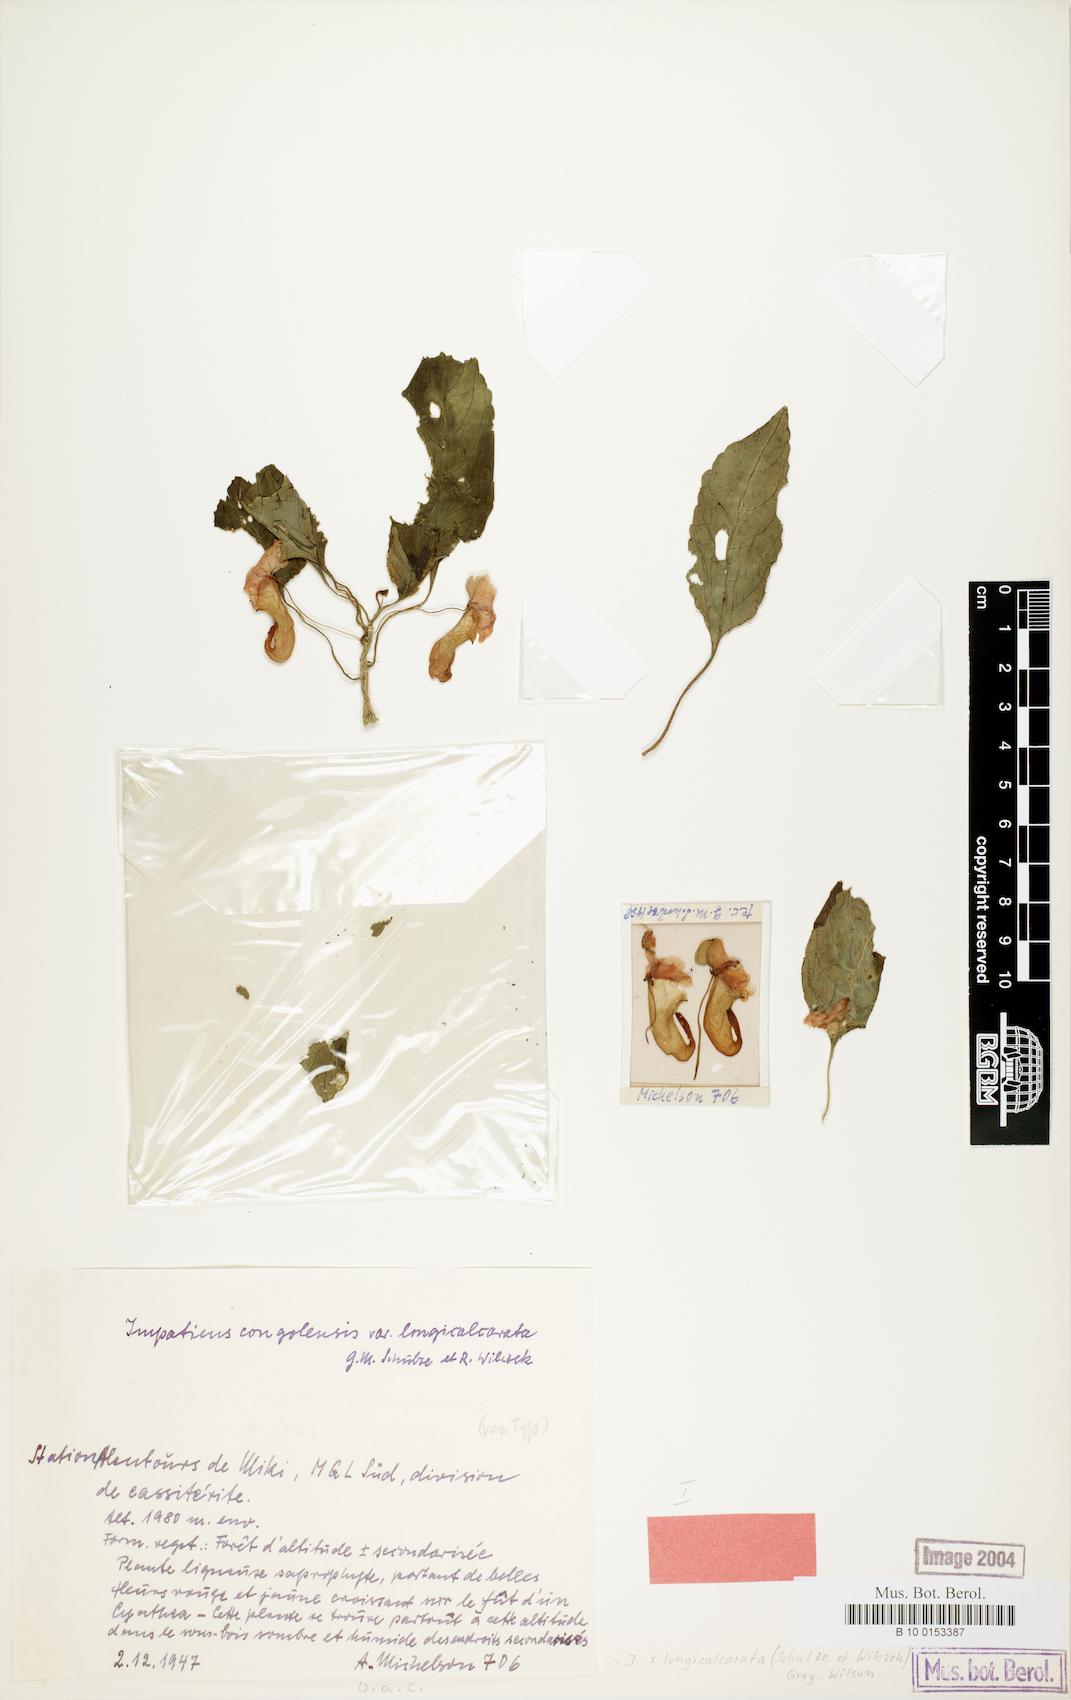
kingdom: Plantae
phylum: Tracheophyta
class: Magnoliopsida
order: Ericales
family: Balsaminaceae
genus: Impatiens
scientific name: Impatiens kivuensis
